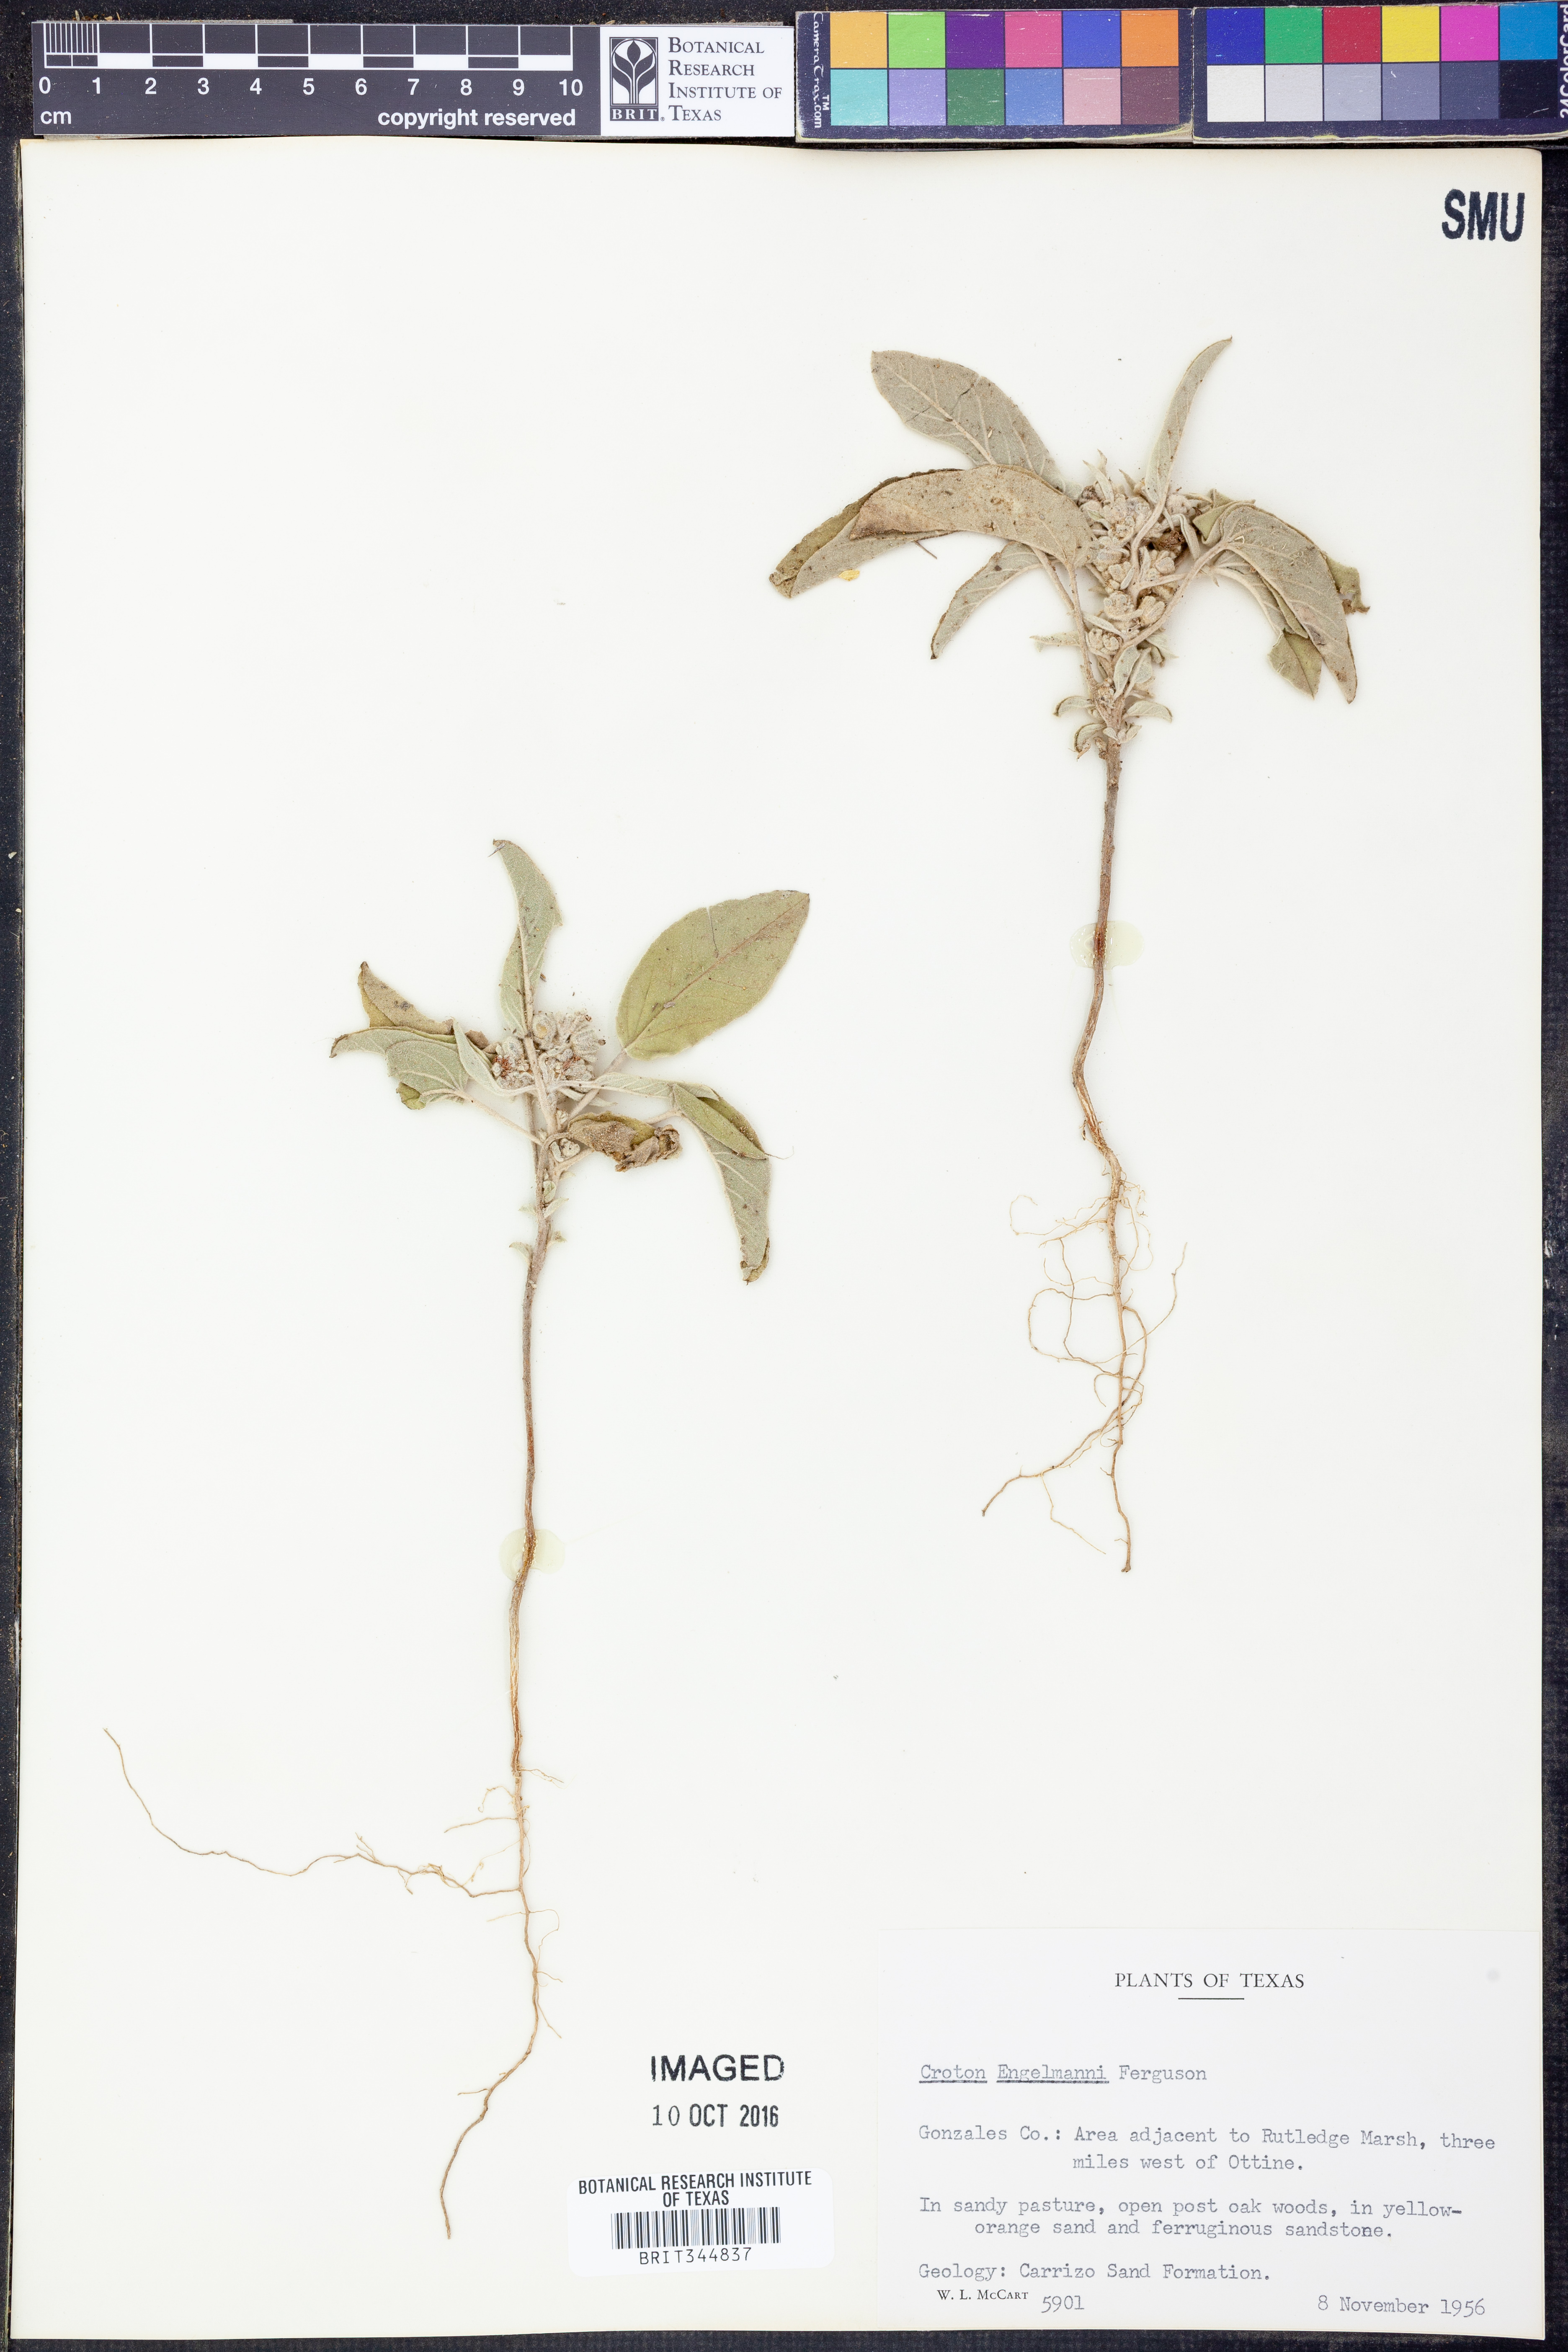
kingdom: Plantae
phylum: Tracheophyta
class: Magnoliopsida
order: Malpighiales
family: Euphorbiaceae
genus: Croton
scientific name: Croton lindheimeri
